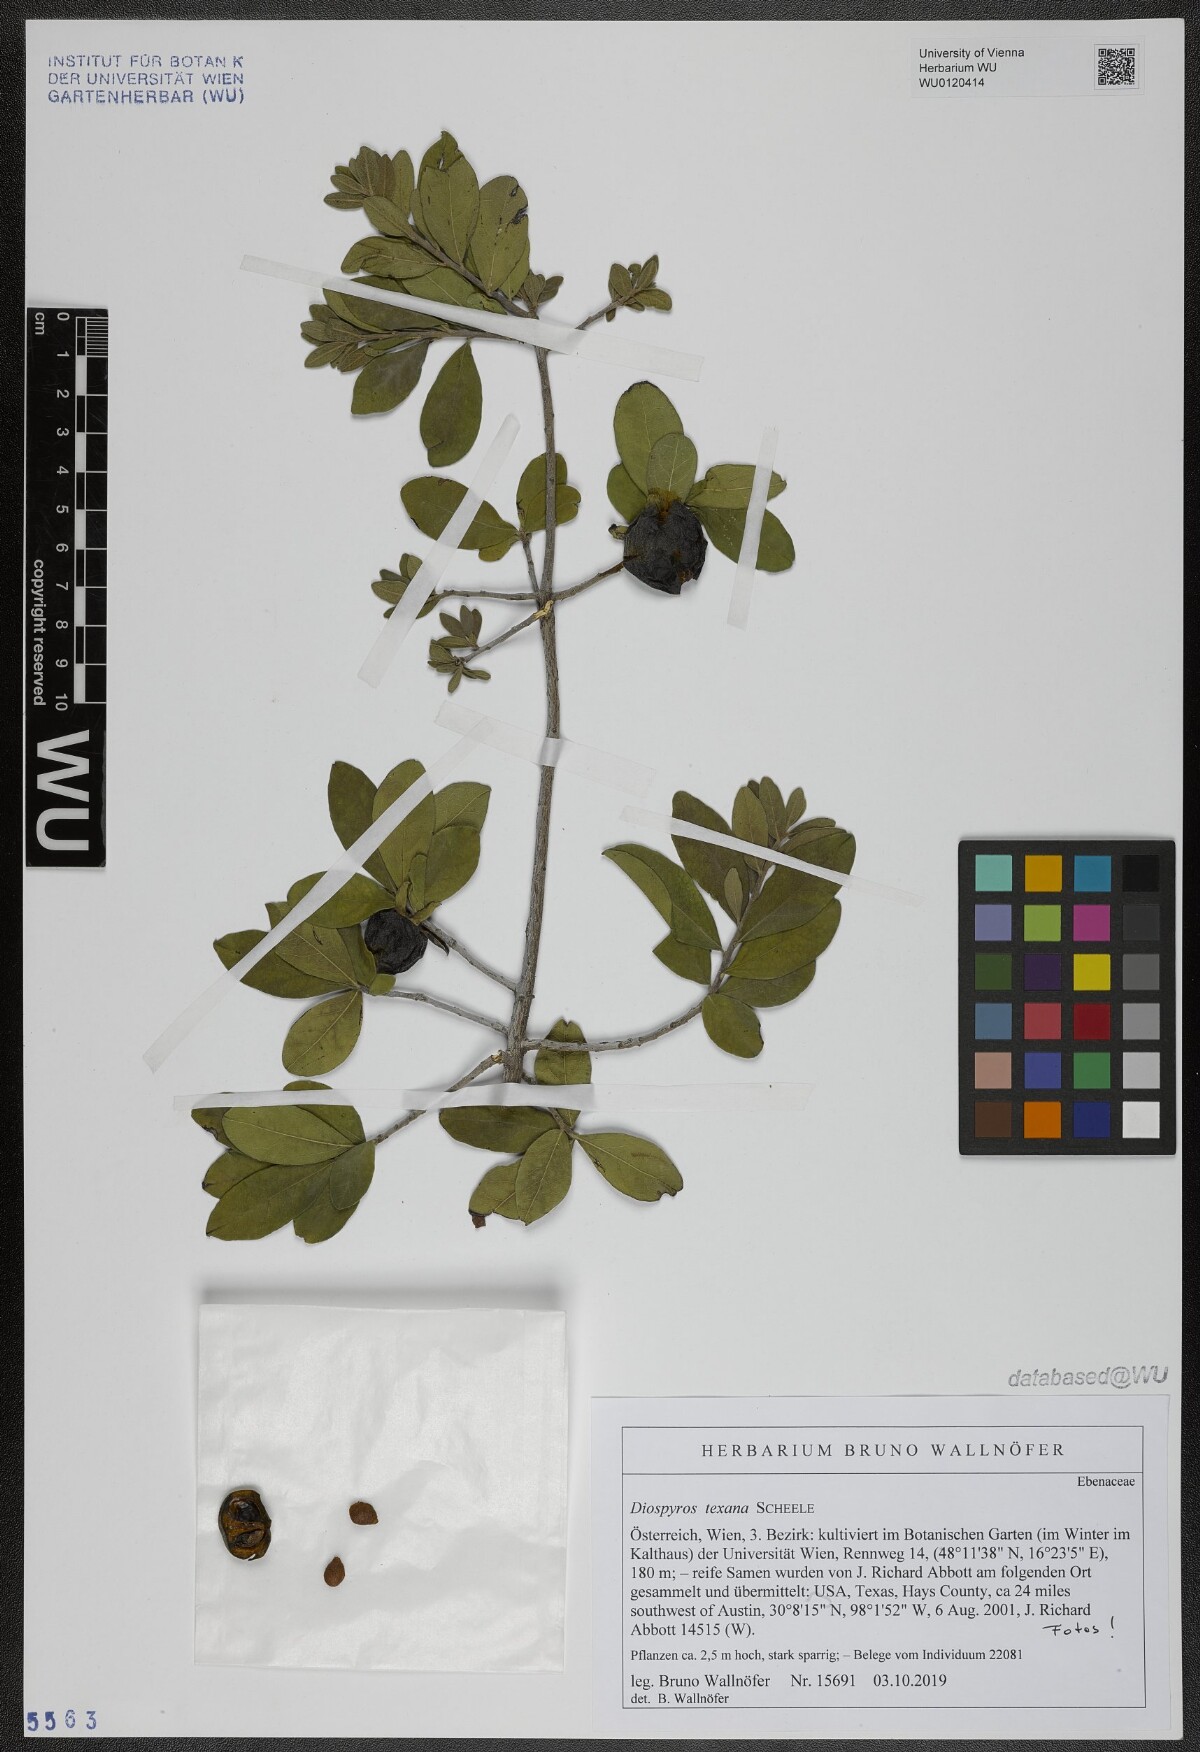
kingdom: Plantae
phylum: Tracheophyta
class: Magnoliopsida
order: Ericales
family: Ebenaceae
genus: Diospyros
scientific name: Diospyros texana
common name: Texas persimmon
